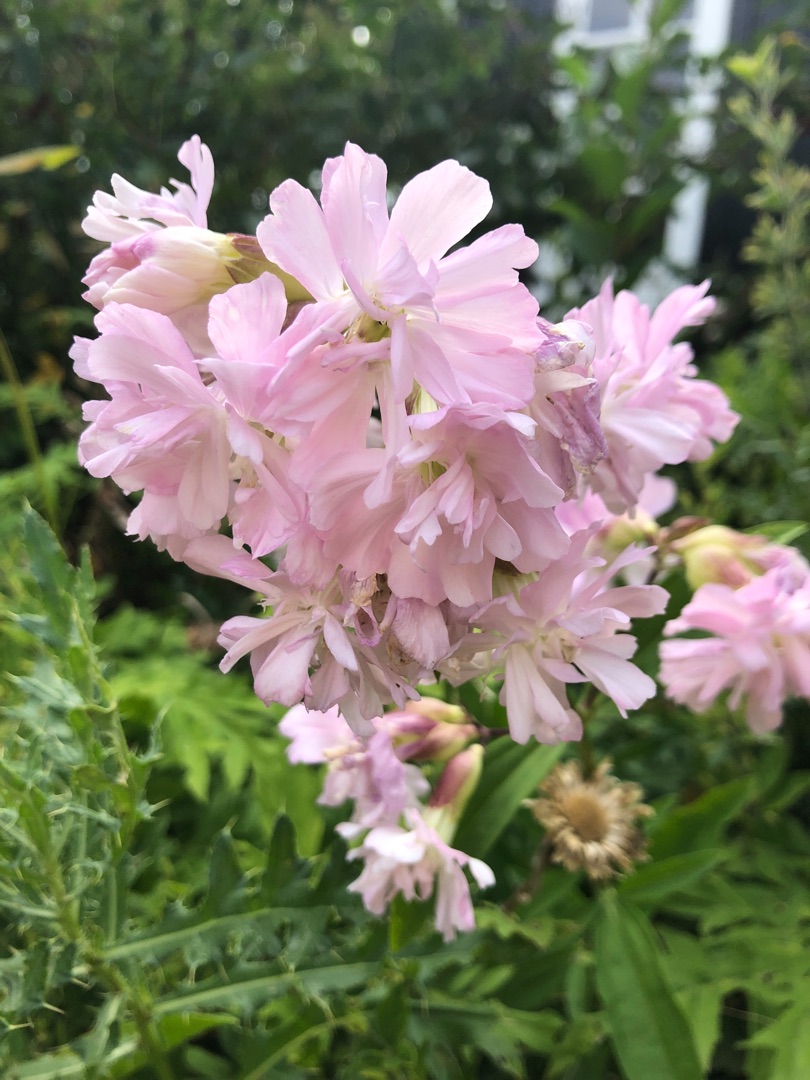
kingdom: Plantae
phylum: Tracheophyta
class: Magnoliopsida
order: Caryophyllales
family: Caryophyllaceae
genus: Saponaria
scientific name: Saponaria officinalis
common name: Sæbeurt
